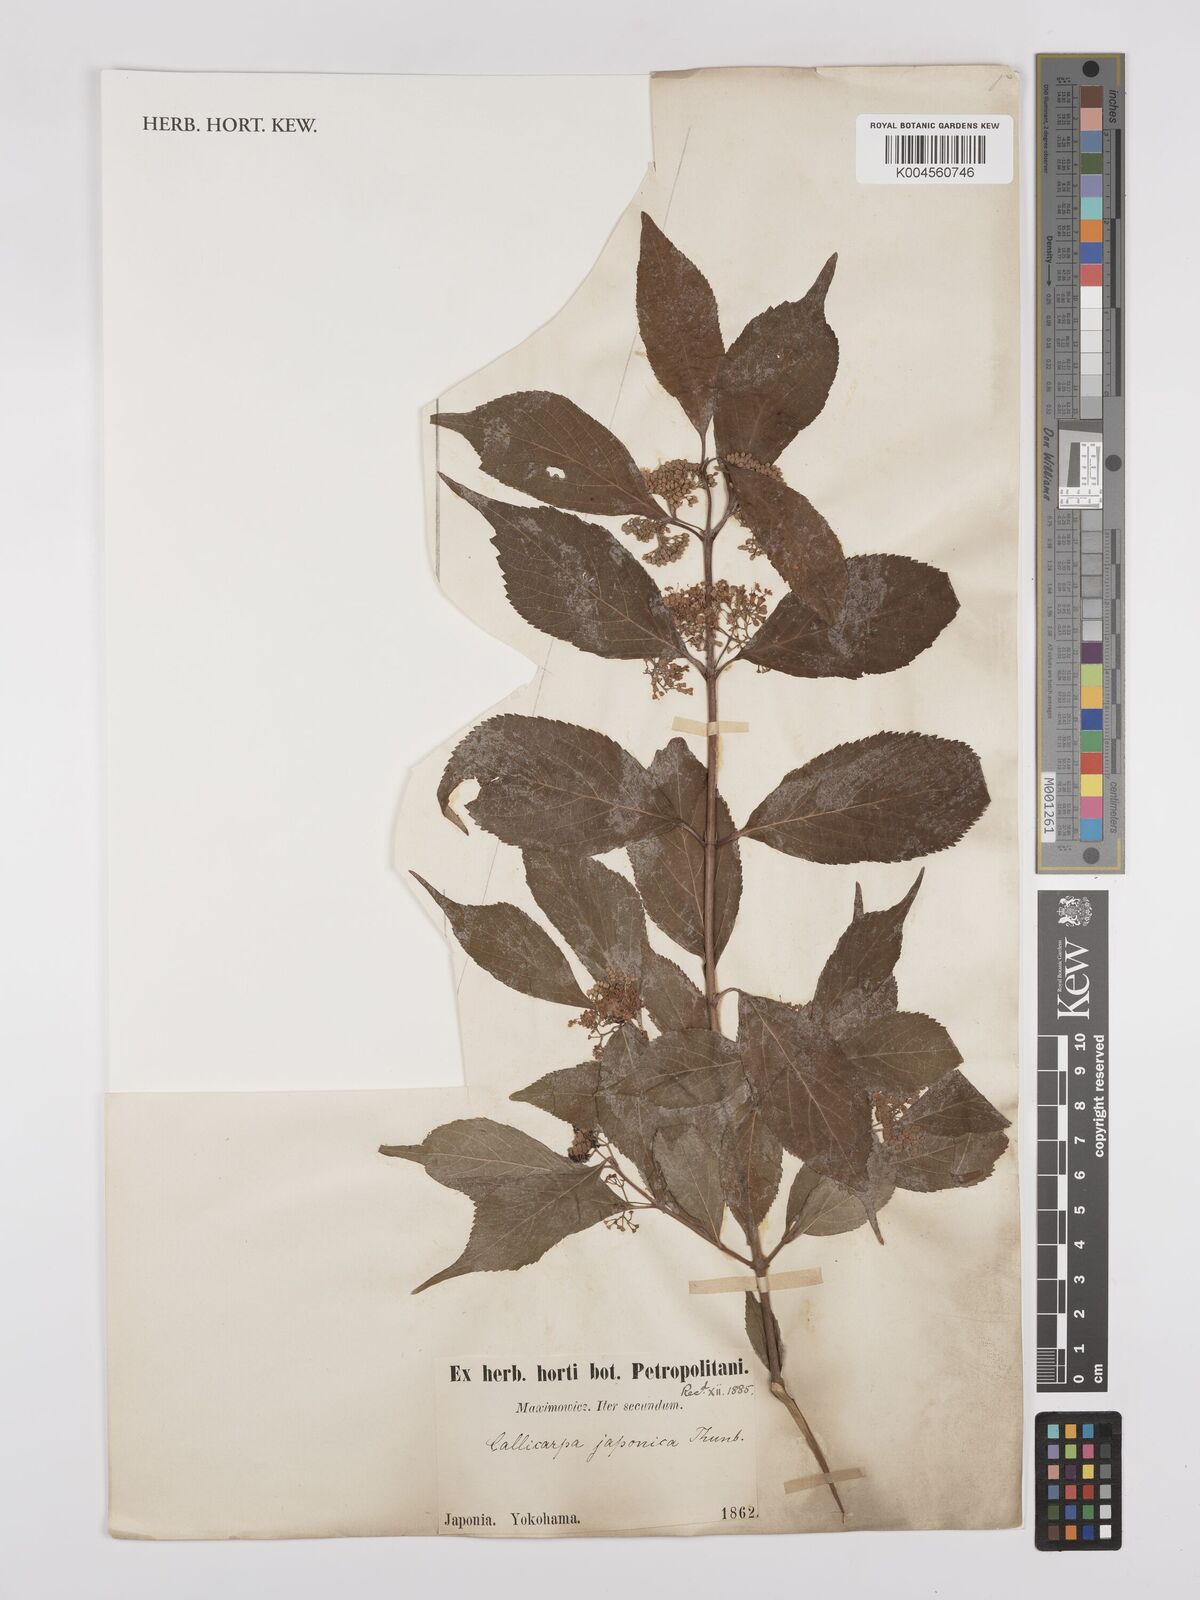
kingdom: Plantae
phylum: Tracheophyta
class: Magnoliopsida
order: Lamiales
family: Lamiaceae
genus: Callicarpa
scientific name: Callicarpa japonica
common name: Japanese beauty-berry
